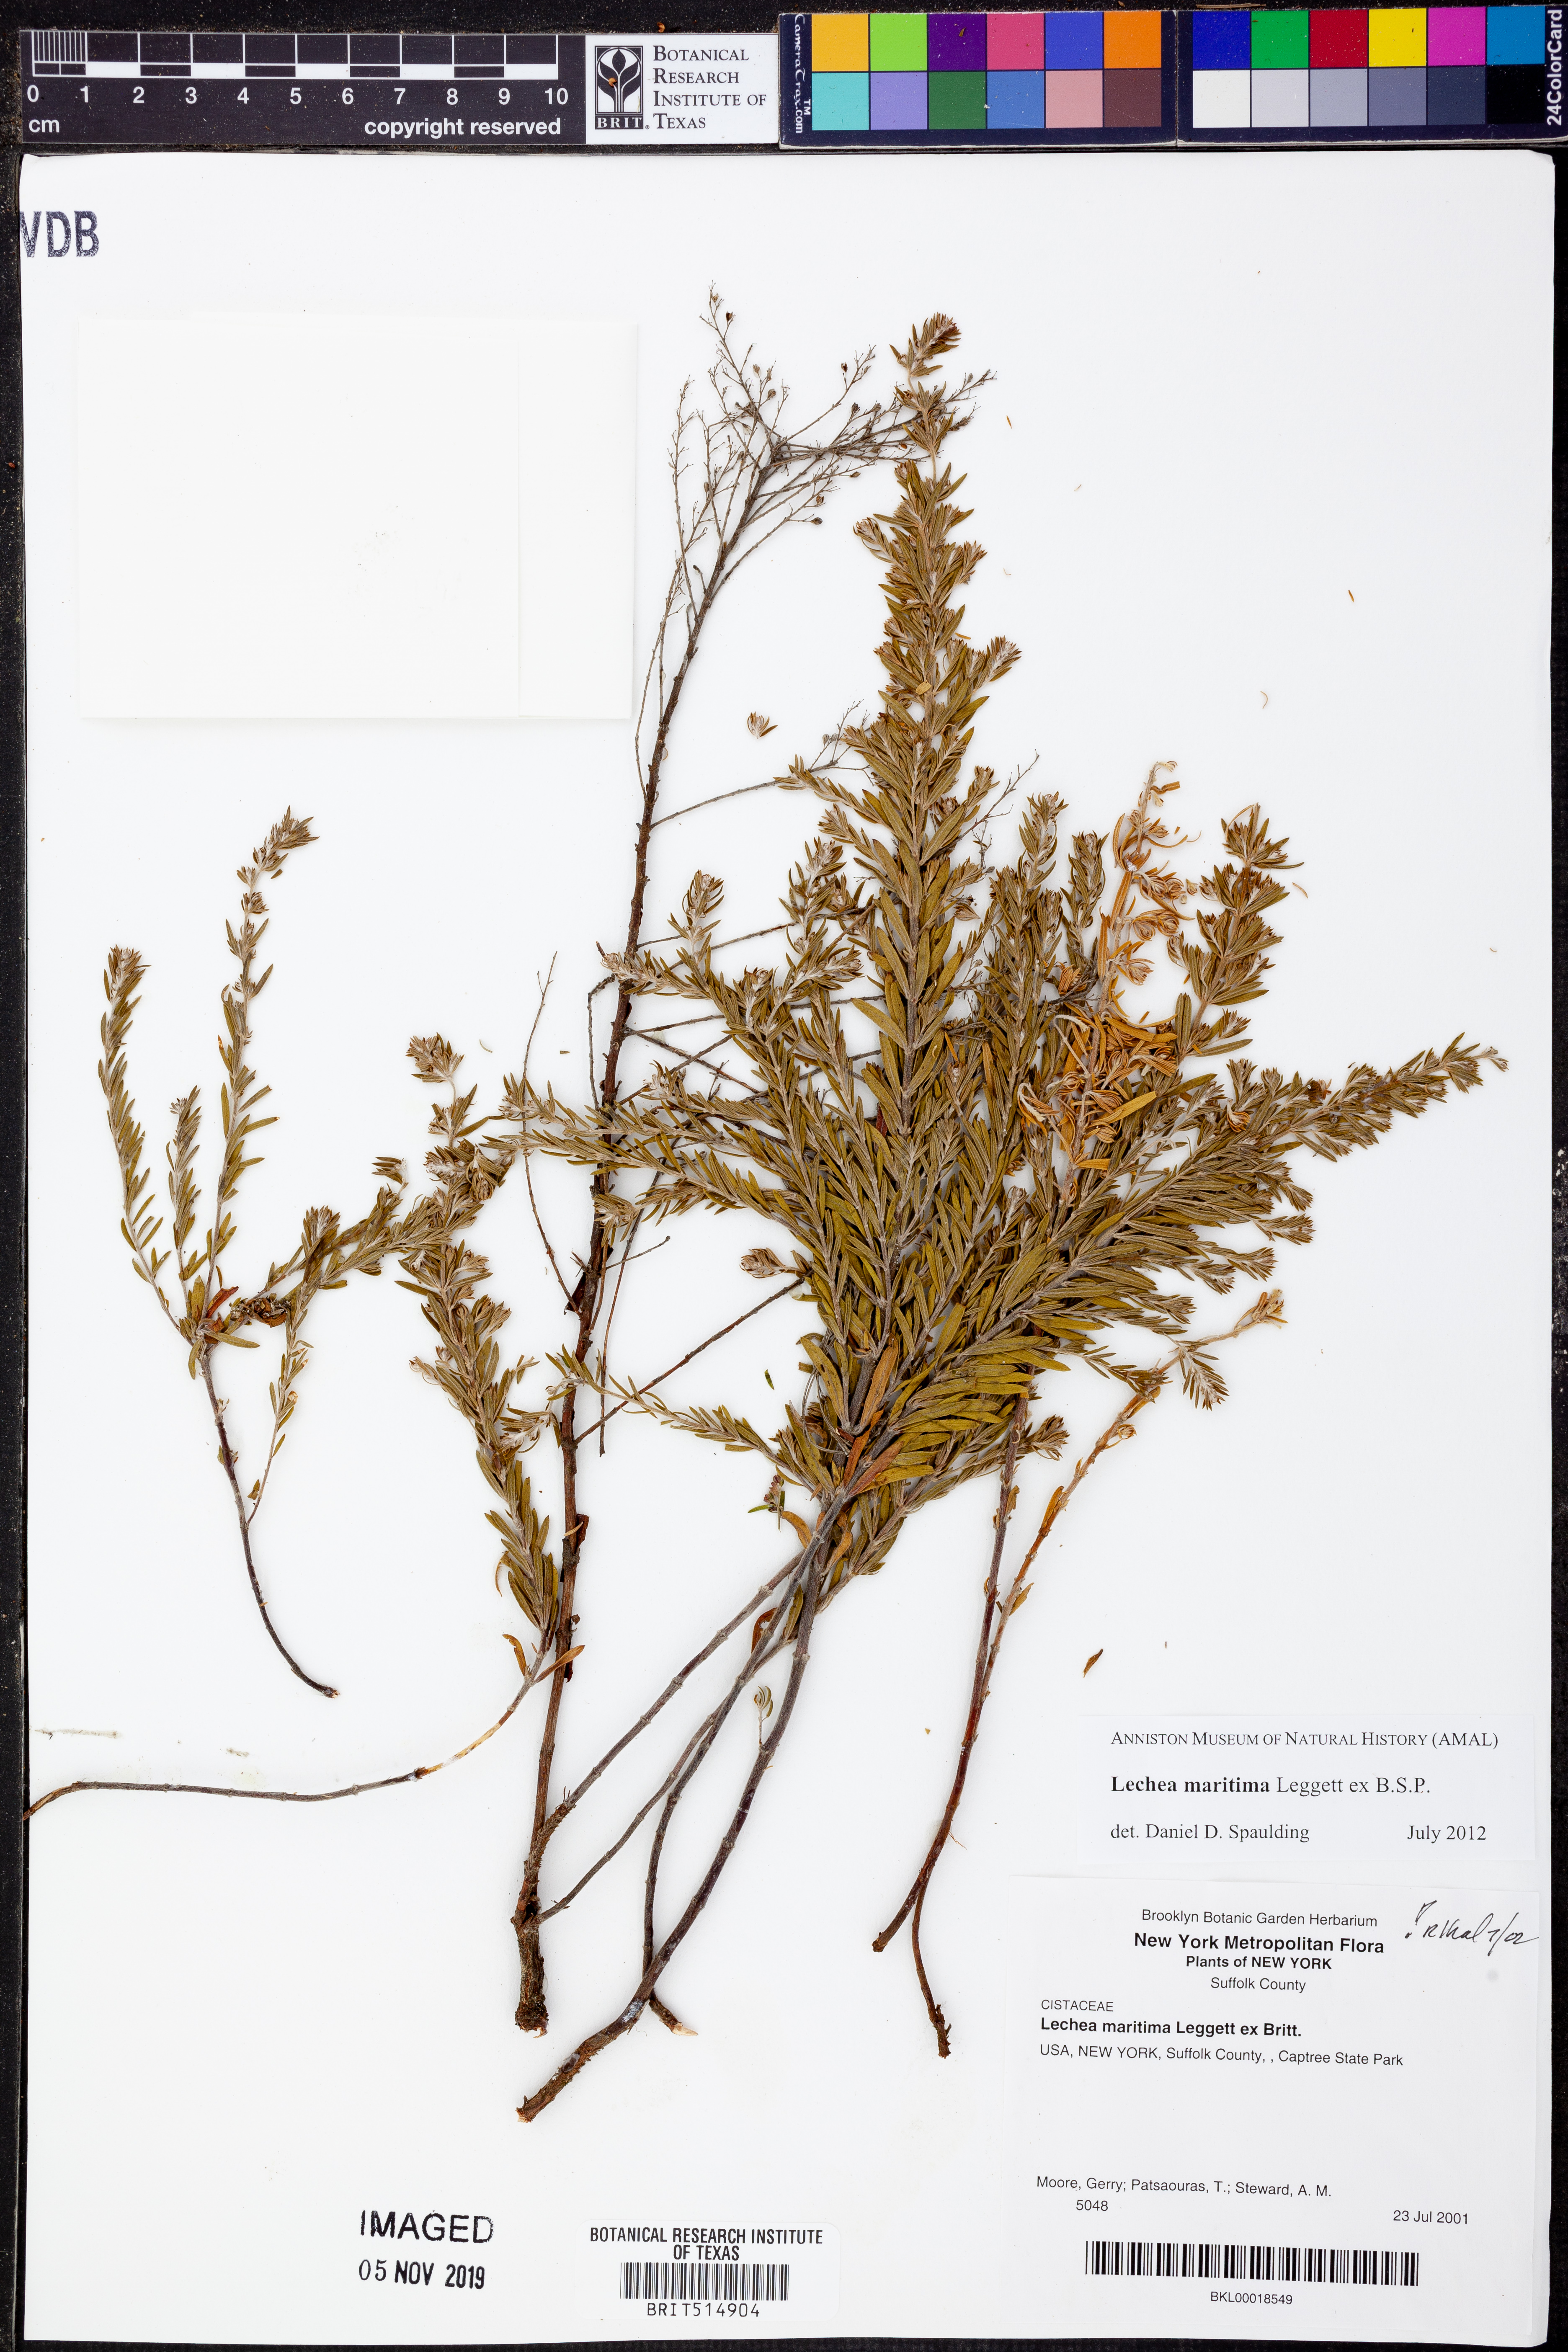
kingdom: Plantae
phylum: Tracheophyta
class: Magnoliopsida
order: Malvales
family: Cistaceae
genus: Lechea
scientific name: Lechea maritima
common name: Beach pinweed
